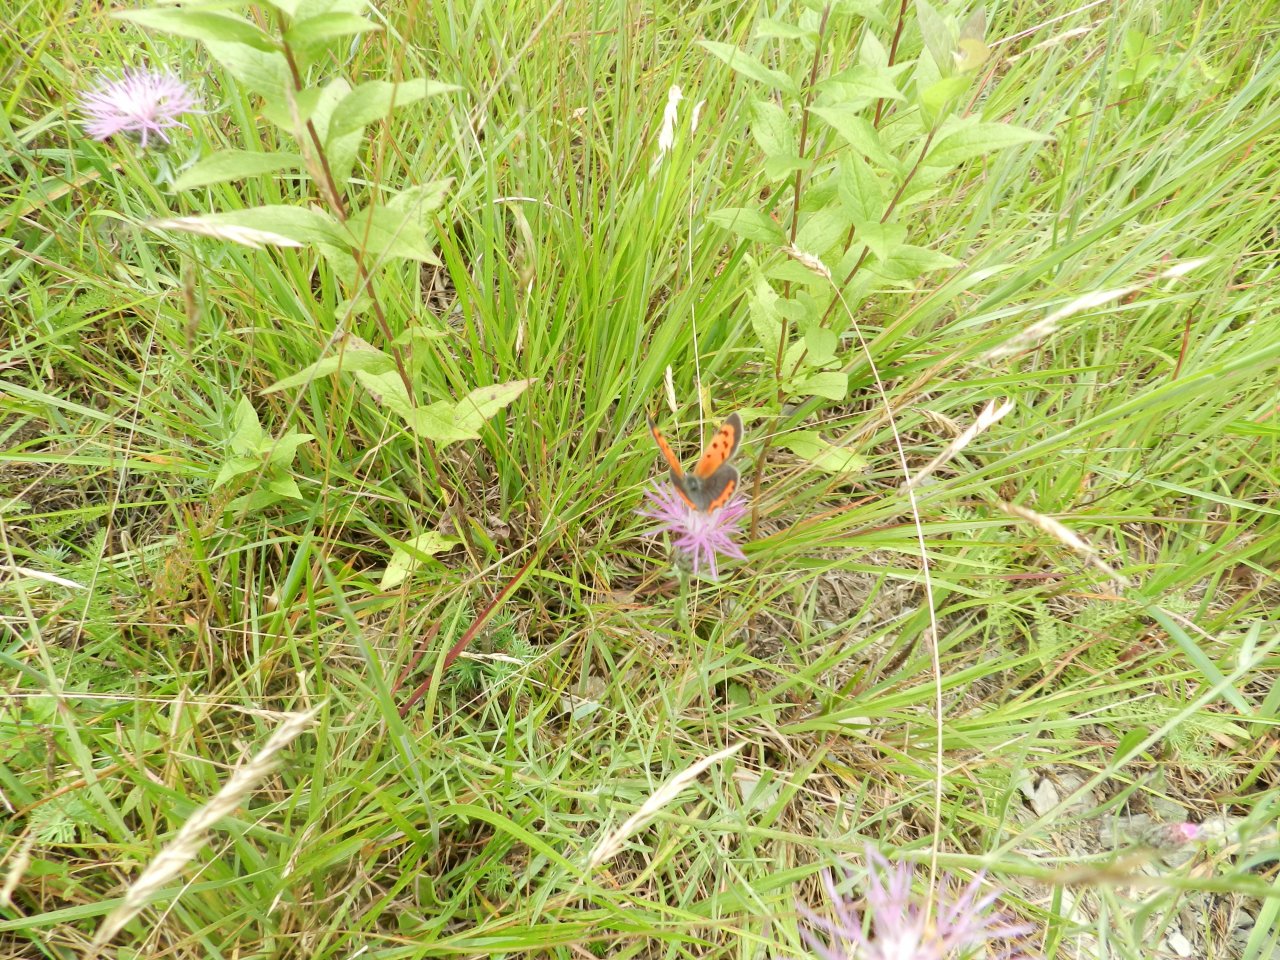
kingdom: Animalia
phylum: Arthropoda
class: Insecta
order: Lepidoptera
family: Lycaenidae
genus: Lycaena
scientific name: Lycaena phlaeas
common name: American Copper
